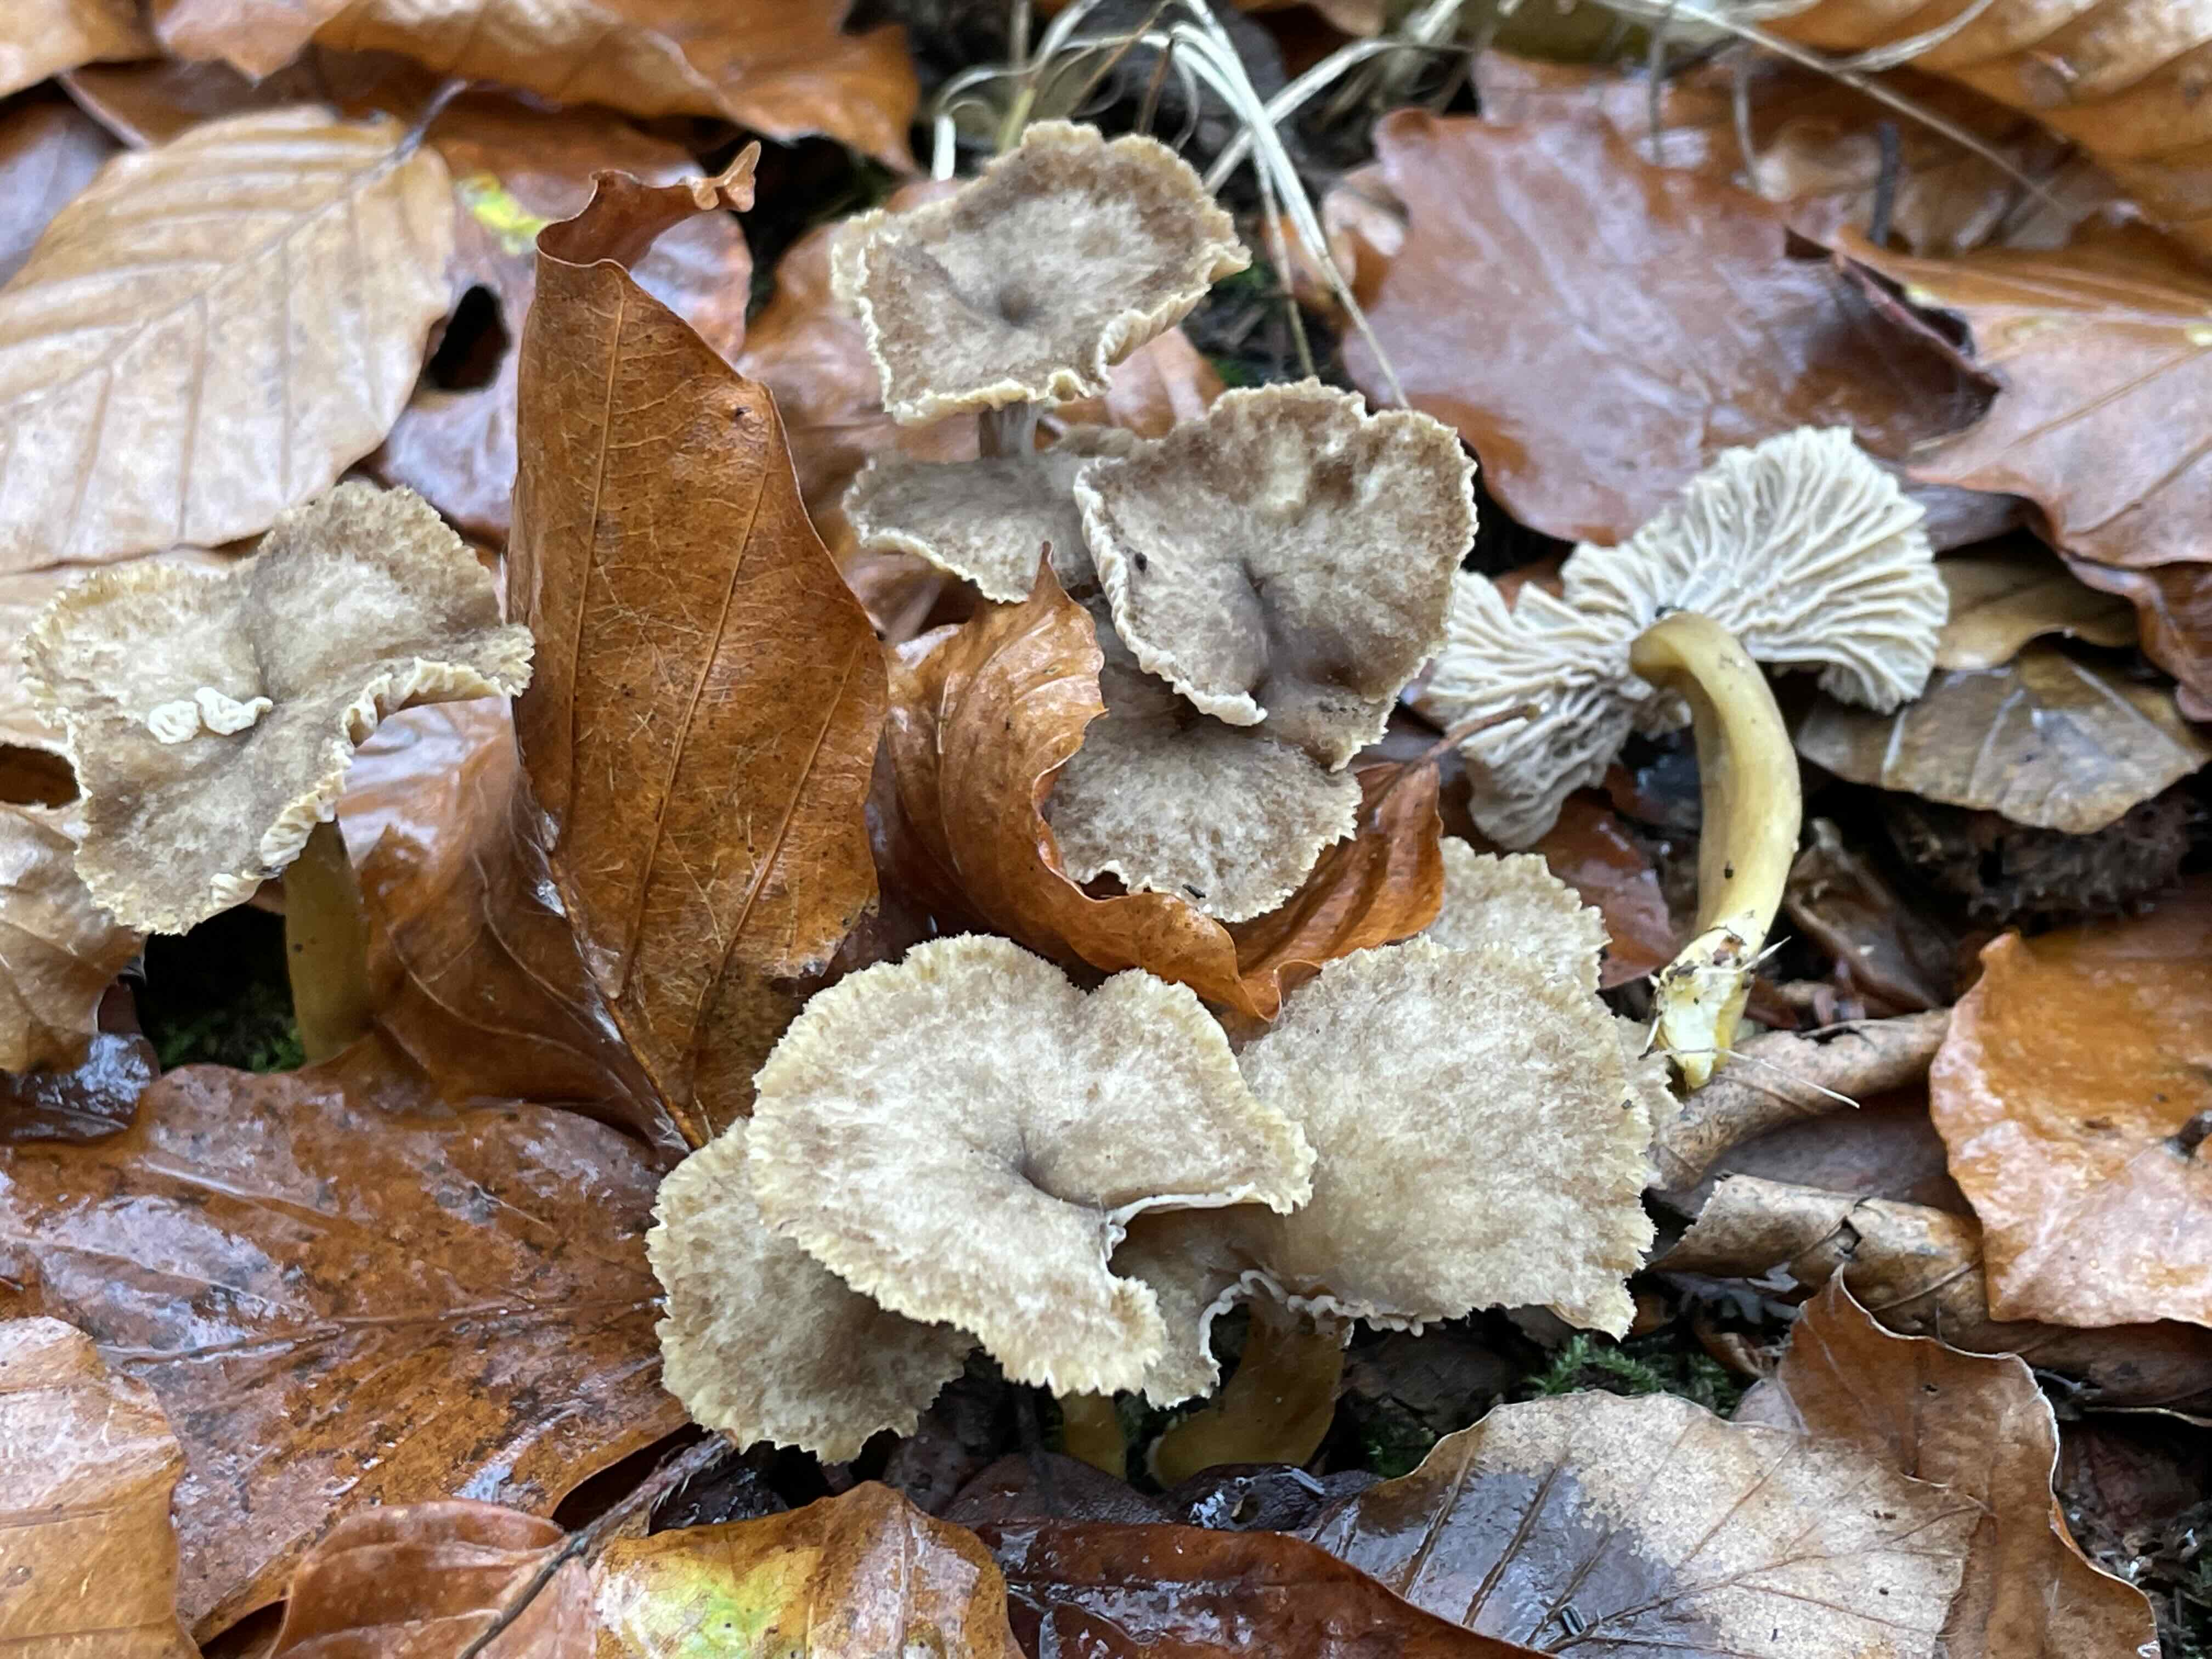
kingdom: Fungi
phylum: Basidiomycota
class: Agaricomycetes
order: Cantharellales
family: Hydnaceae
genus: Craterellus
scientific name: Craterellus tubaeformis
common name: tragt-kantarel
